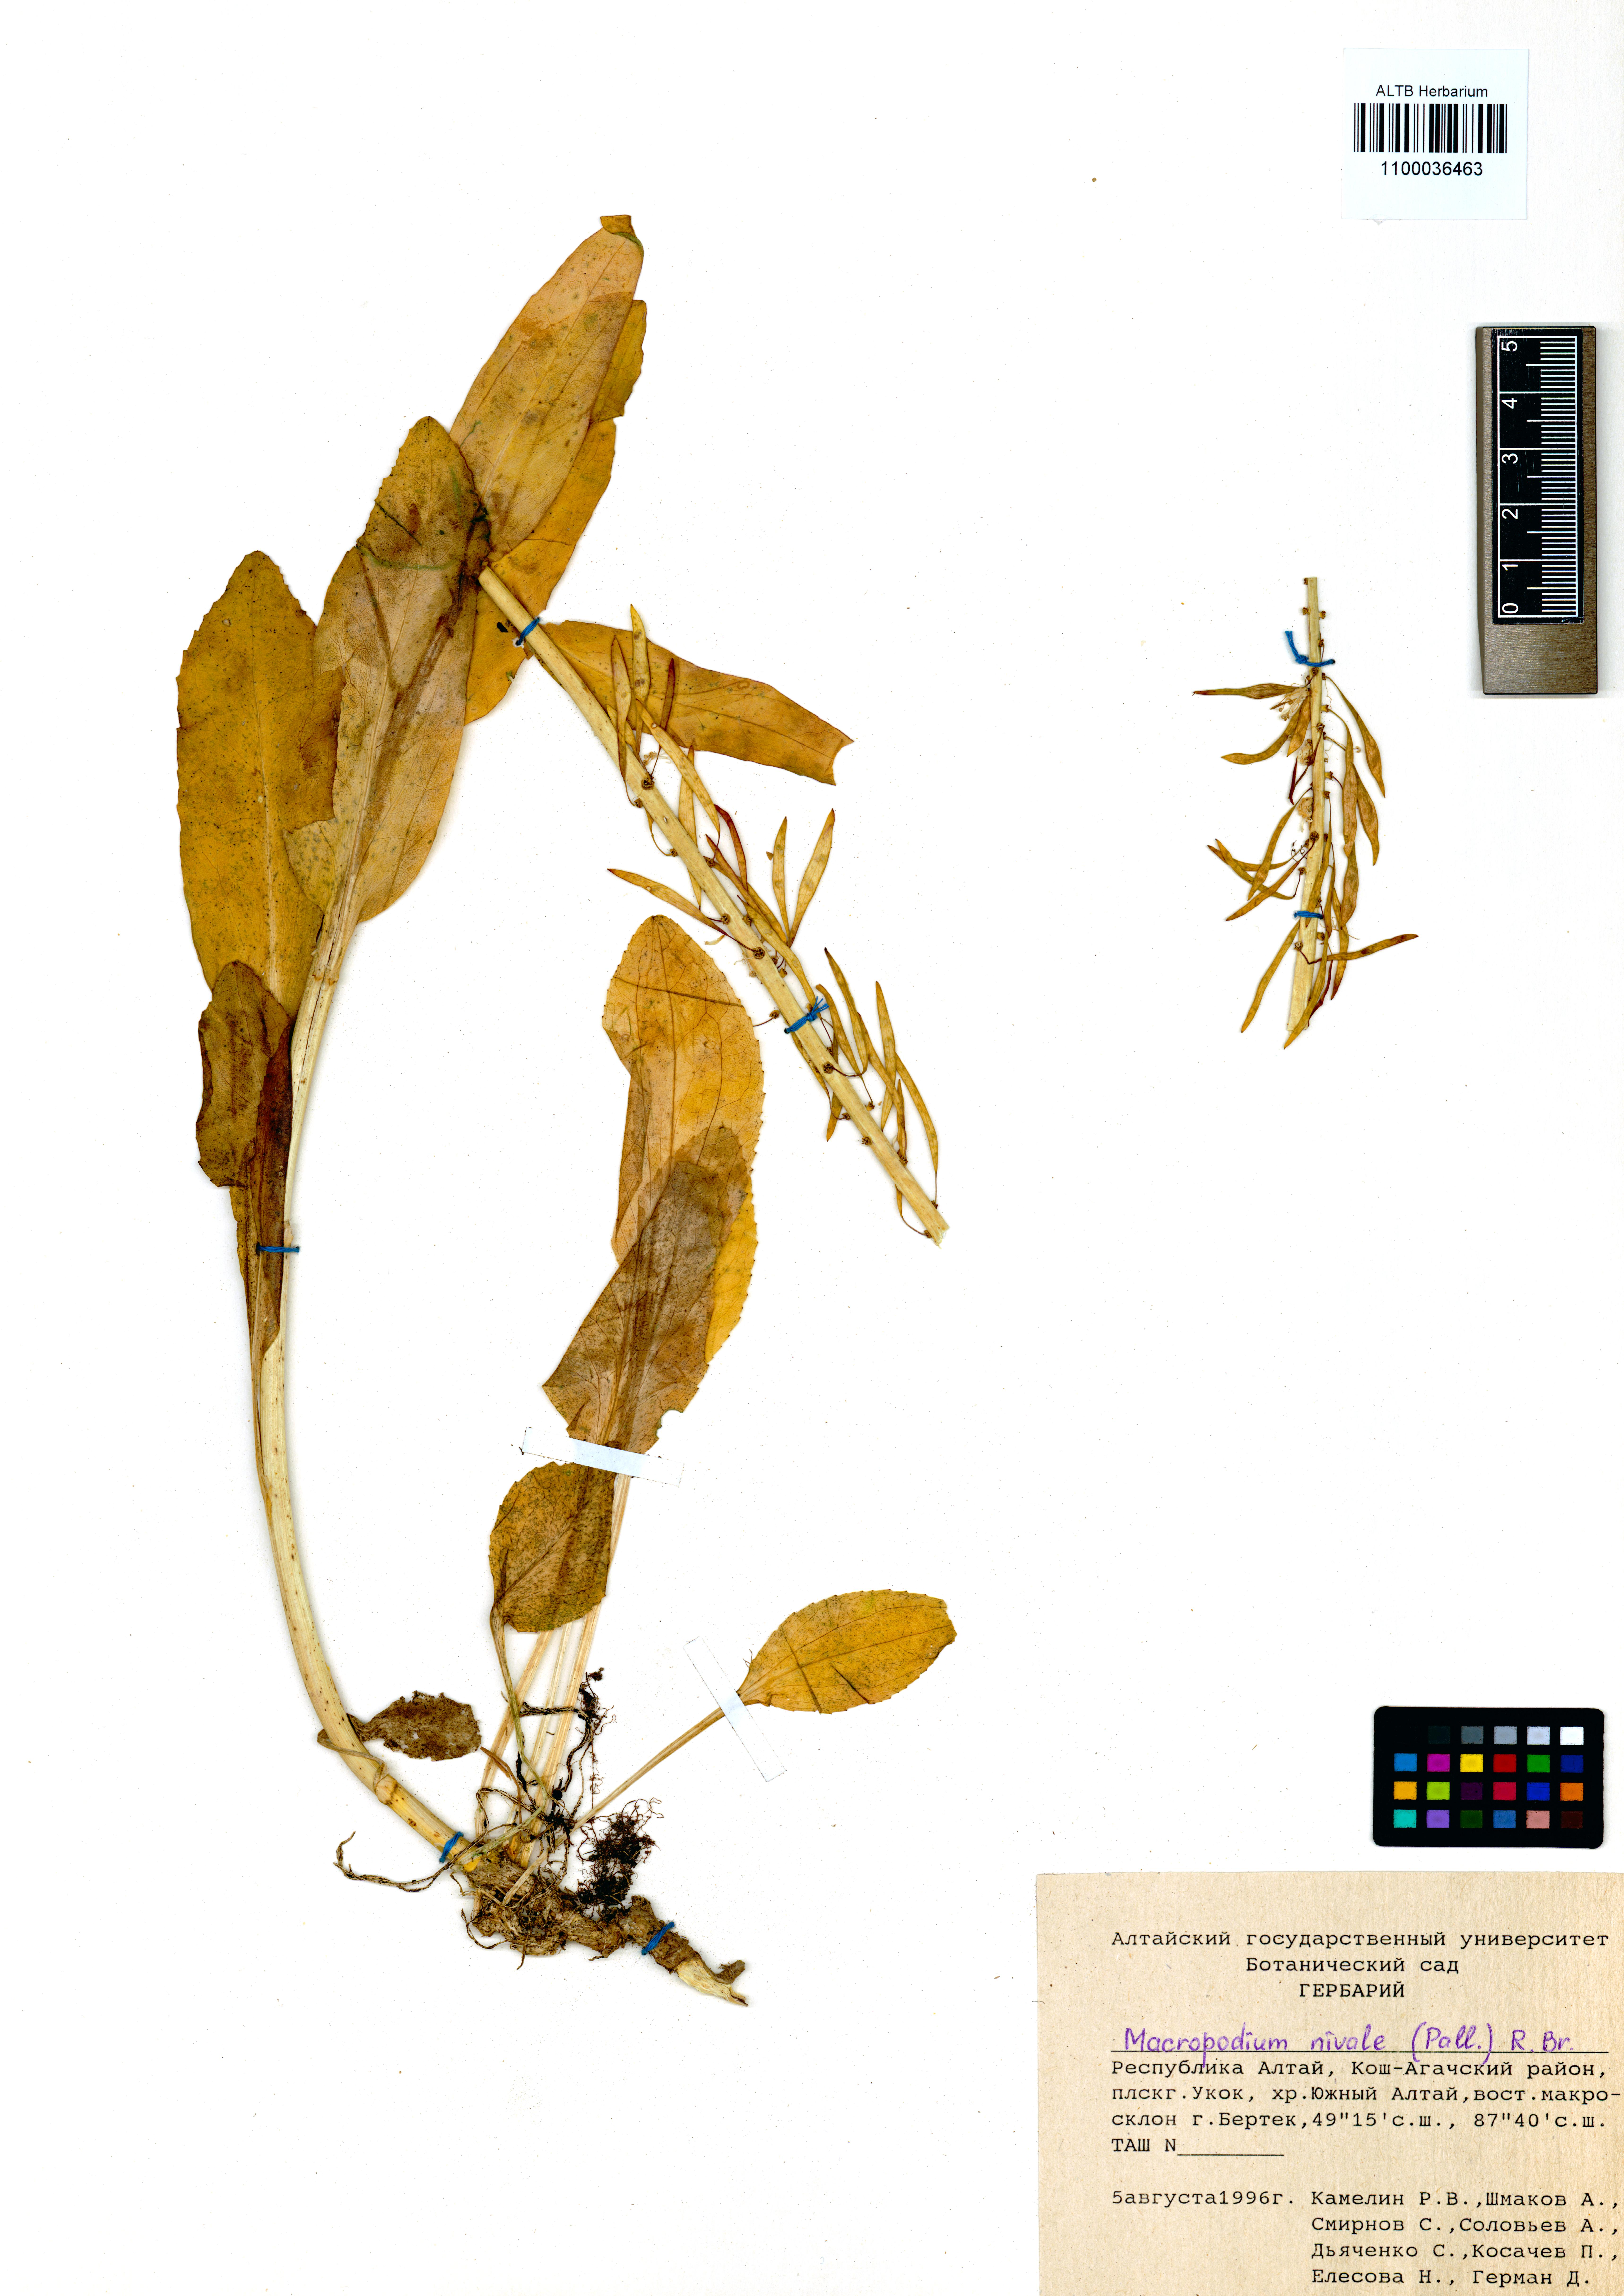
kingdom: Plantae
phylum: Tracheophyta
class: Magnoliopsida
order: Brassicales
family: Brassicaceae
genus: Macropodium
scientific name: Macropodium nivale
